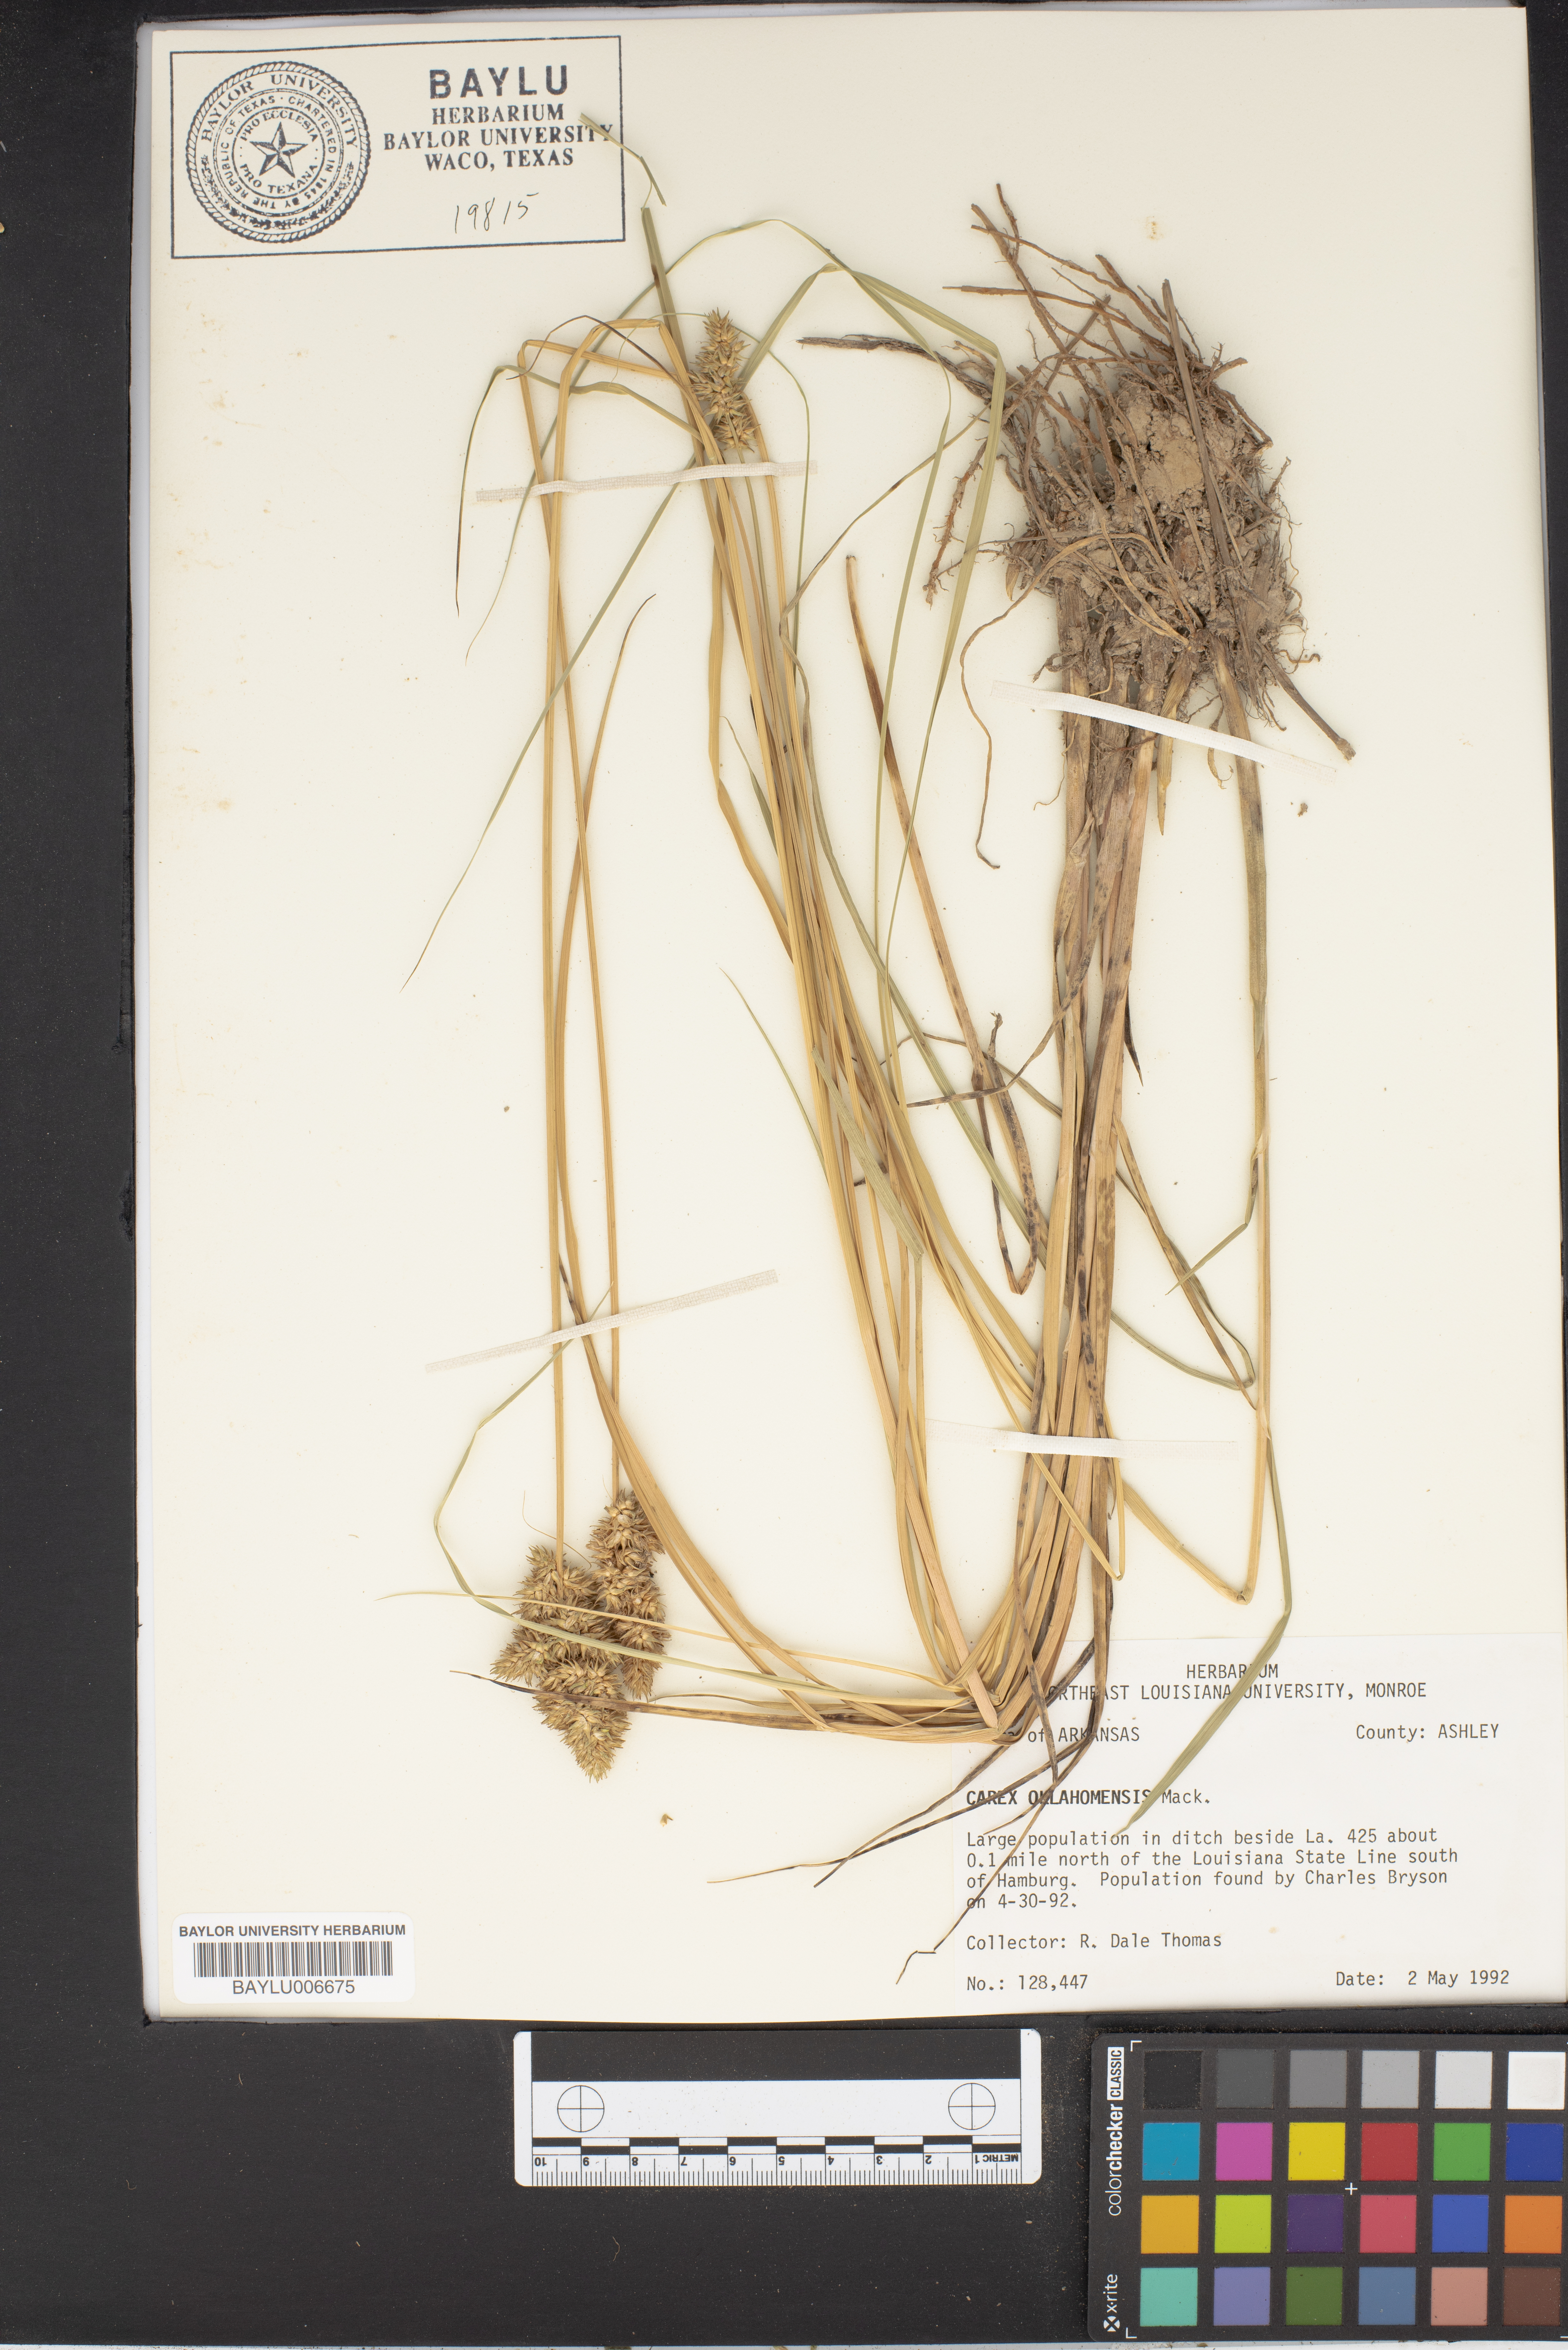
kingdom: Plantae
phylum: Tracheophyta
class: Liliopsida
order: Poales
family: Cyperaceae
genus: Carex
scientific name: Carex oklahomensis
